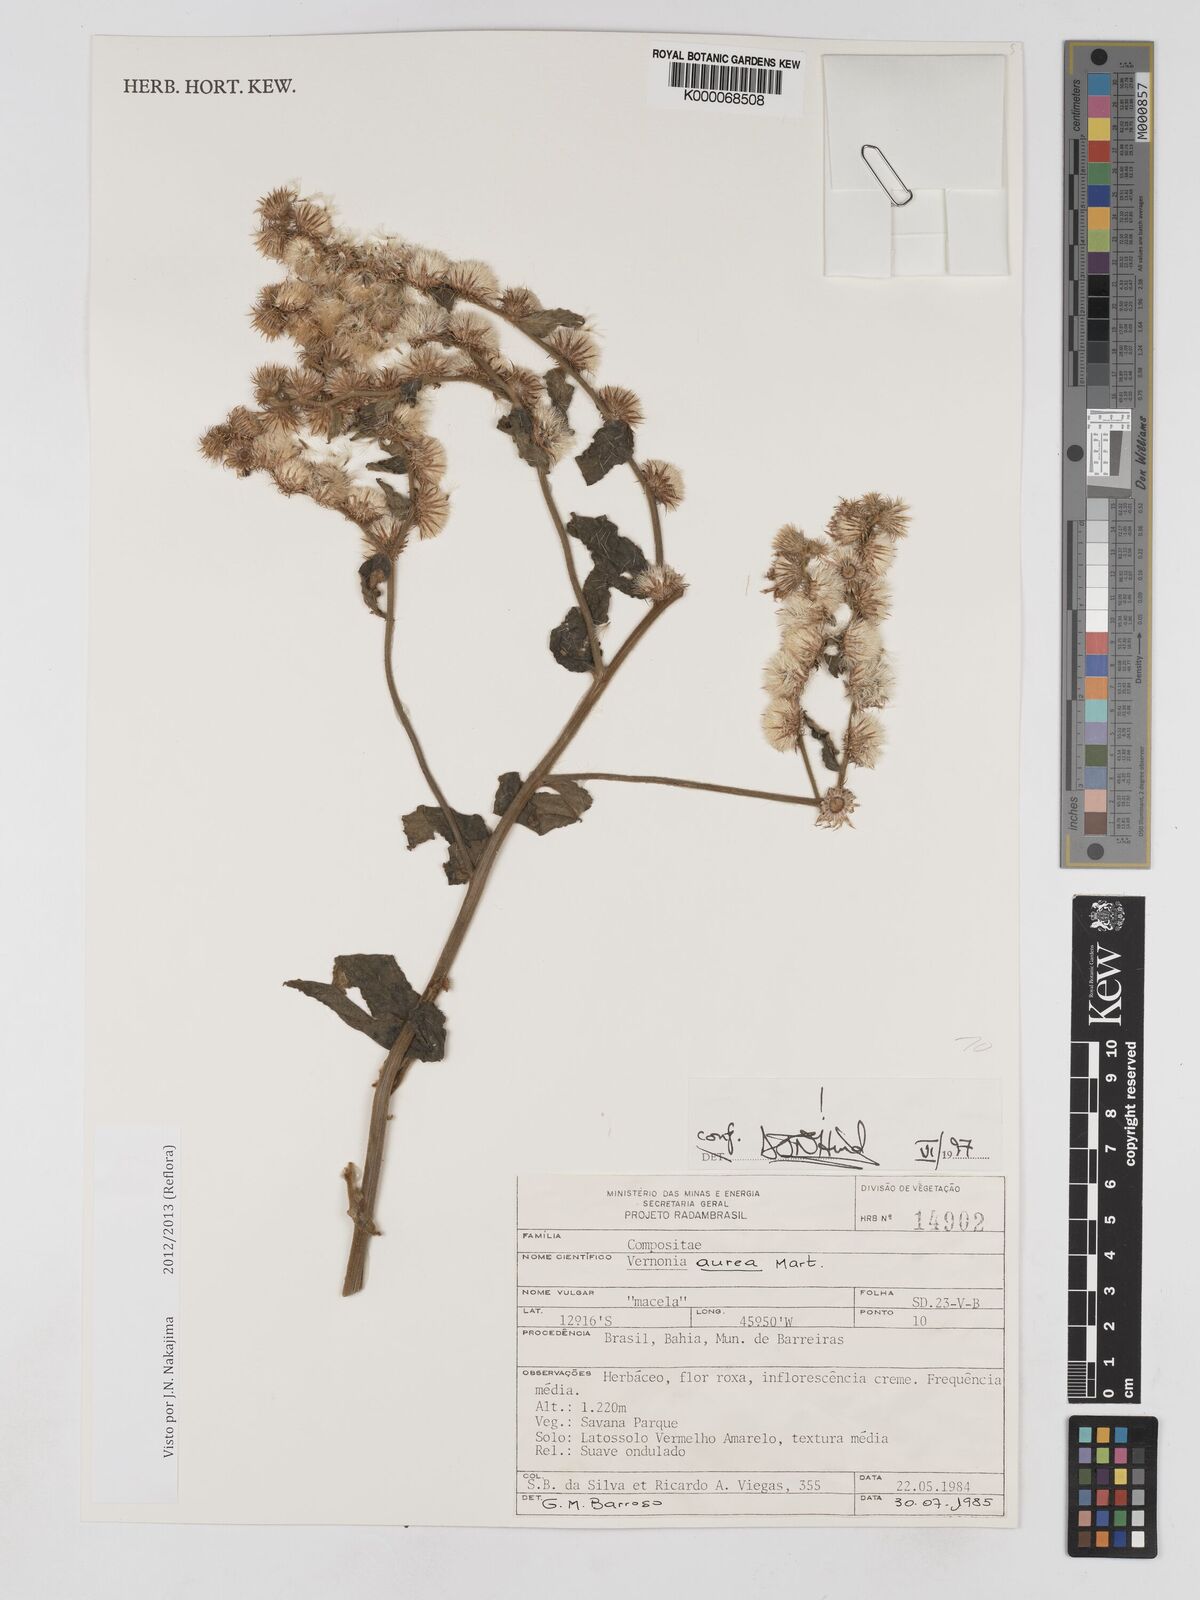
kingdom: Plantae
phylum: Tracheophyta
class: Magnoliopsida
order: Asterales
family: Asteraceae
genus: Lepidaploa
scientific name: Lepidaploa aurea
